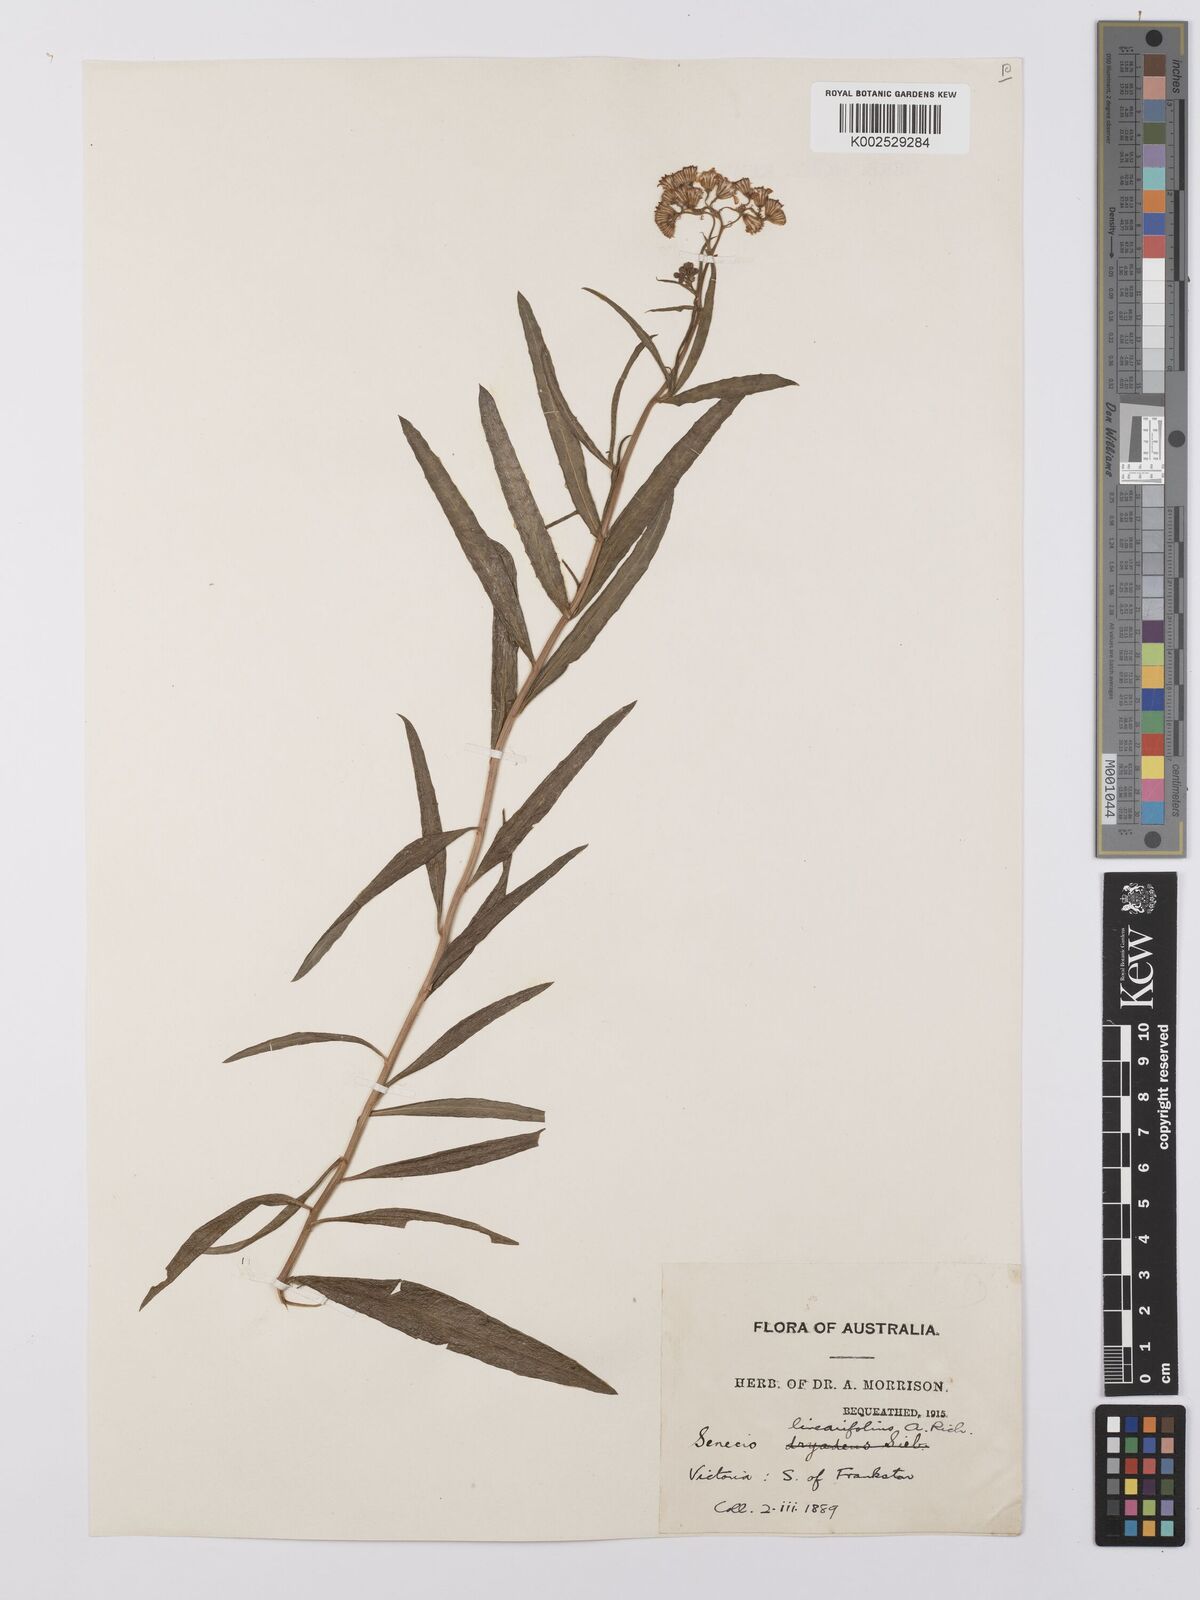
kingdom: Plantae
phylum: Tracheophyta
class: Magnoliopsida
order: Asterales
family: Asteraceae
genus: Senecio
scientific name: Senecio
